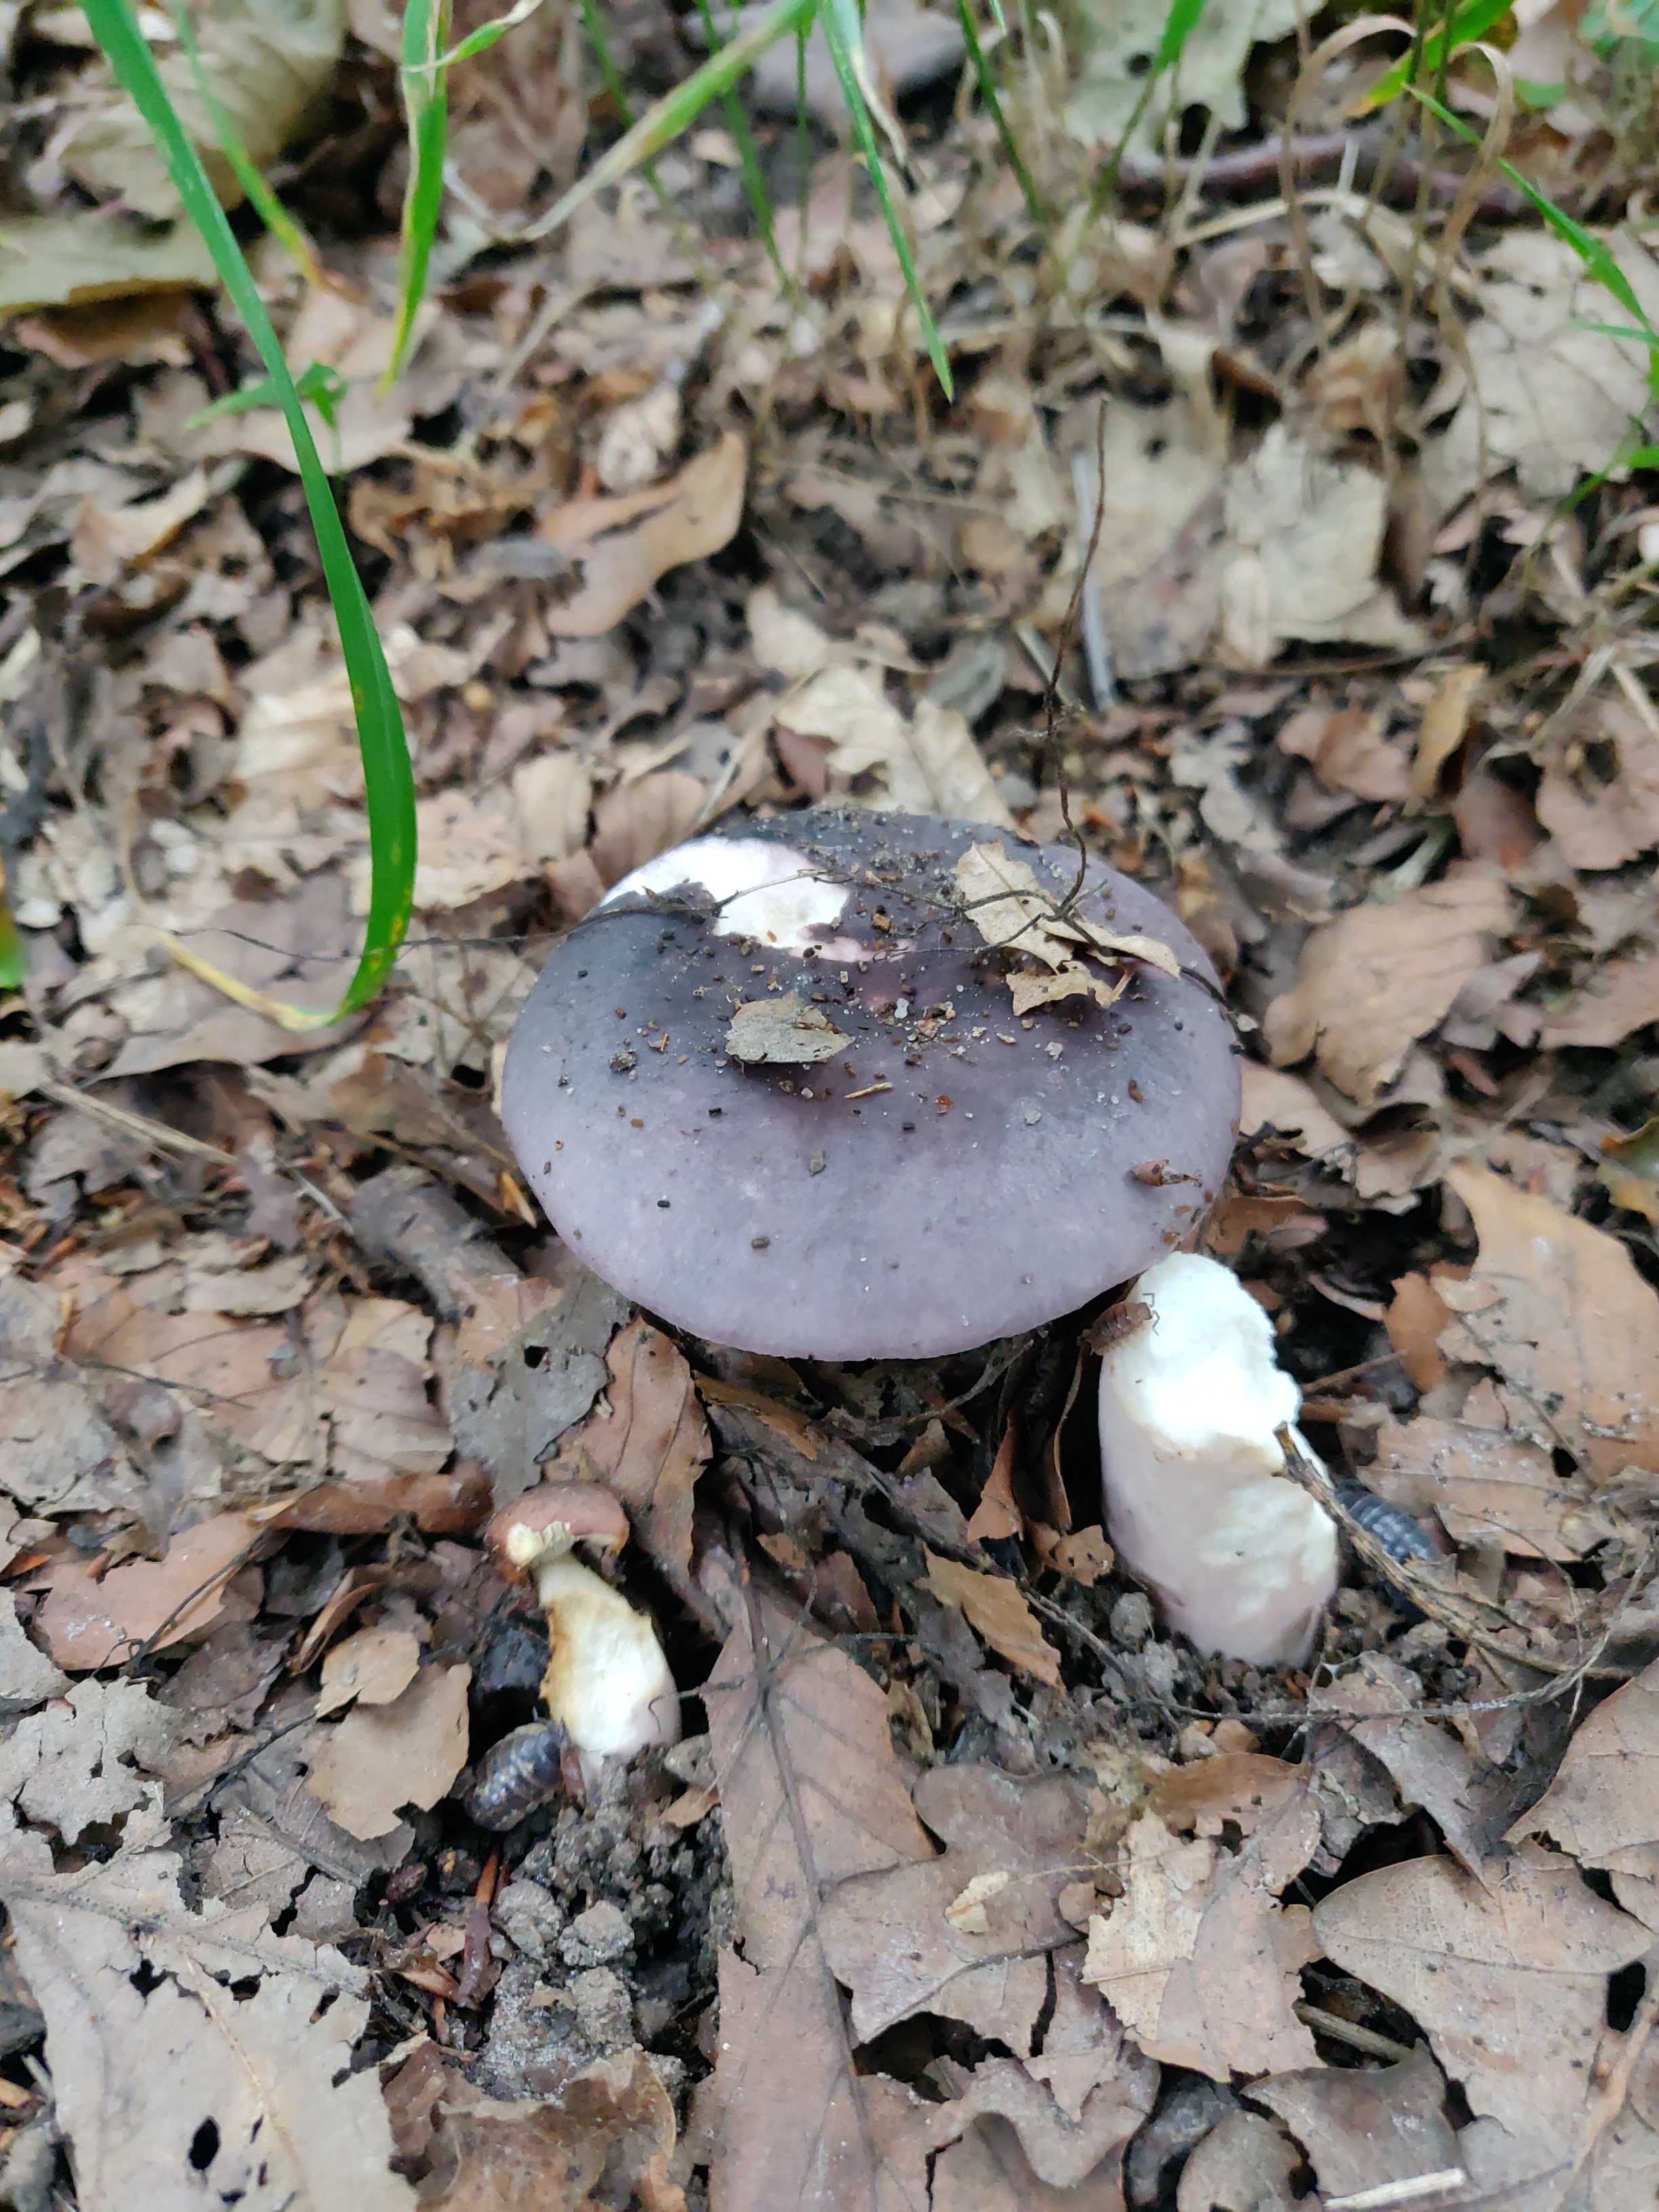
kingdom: Fungi
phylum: Basidiomycota
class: Agaricomycetes
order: Russulales
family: Russulaceae
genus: Russula
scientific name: Russula
